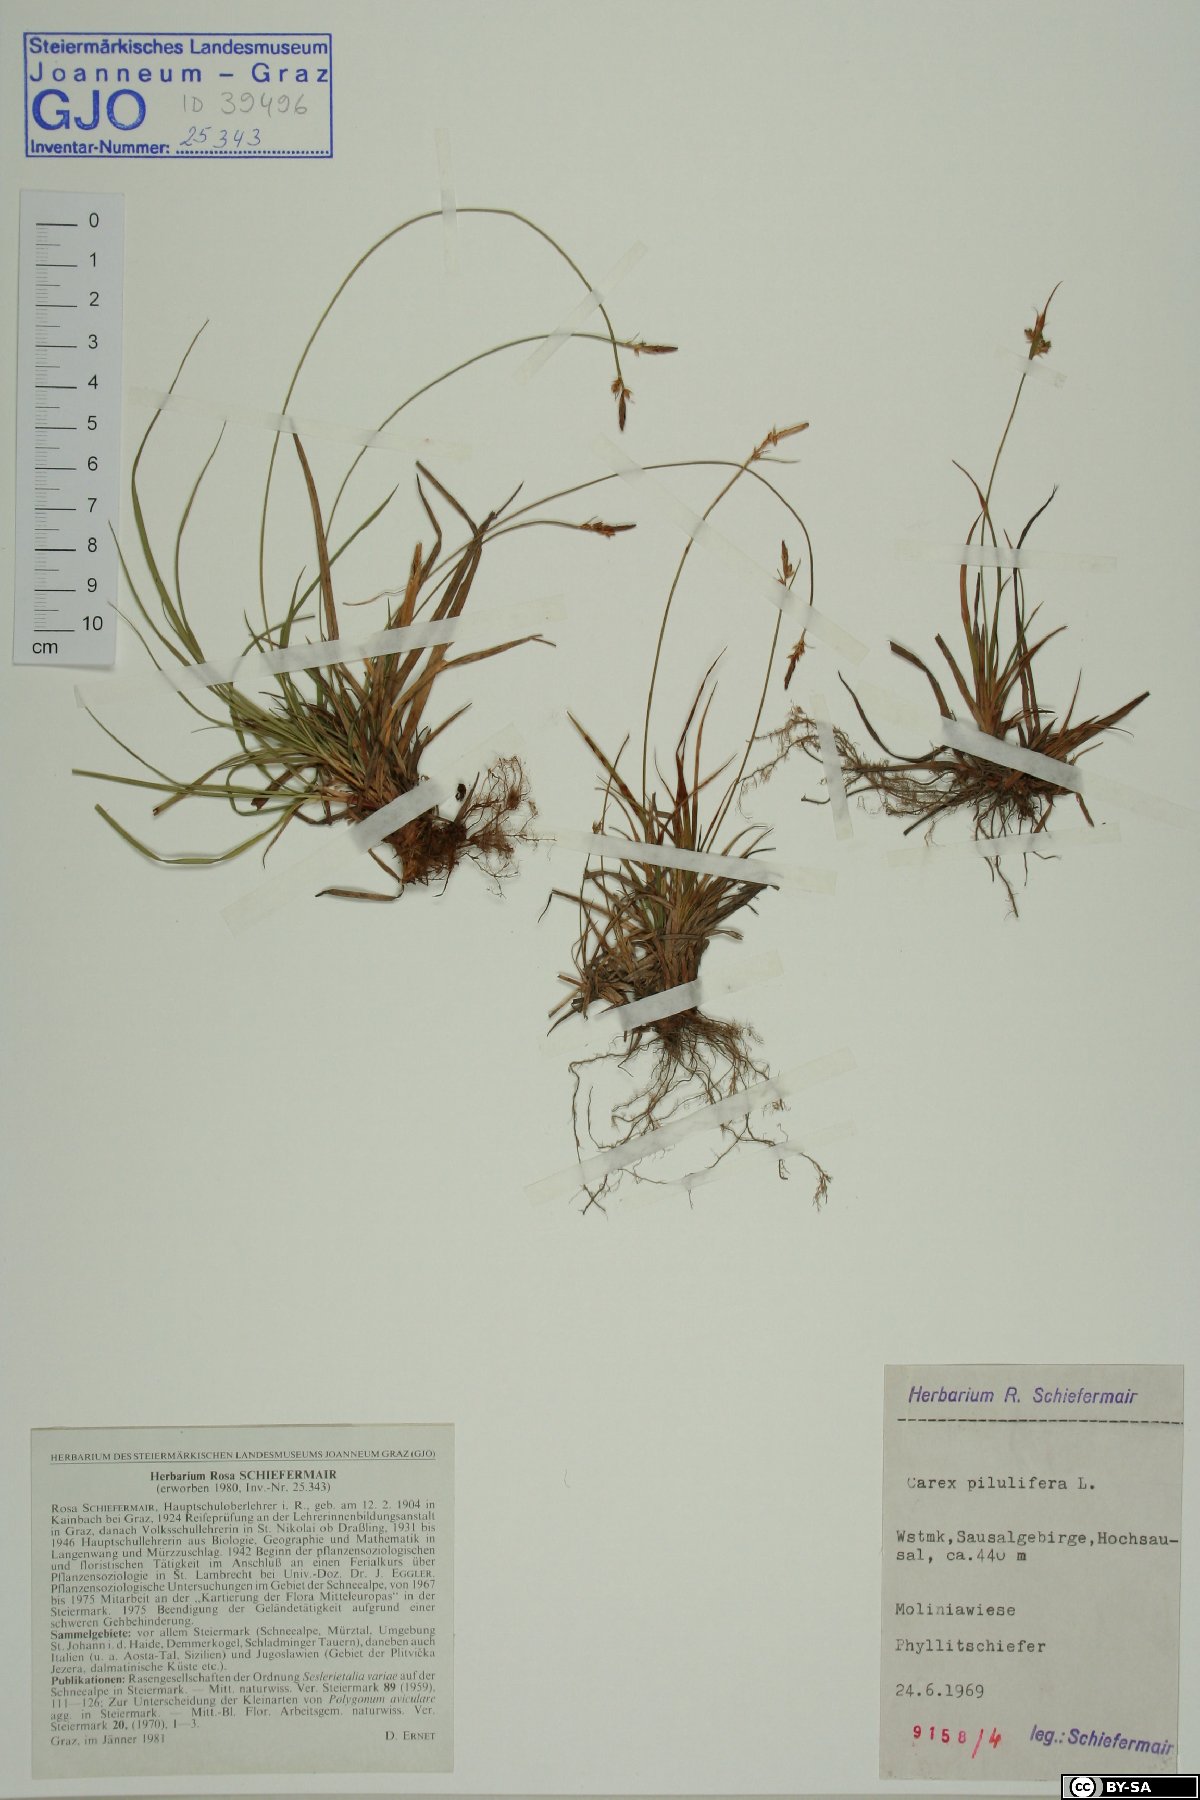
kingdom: Plantae
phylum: Tracheophyta
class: Liliopsida
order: Poales
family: Cyperaceae
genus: Carex
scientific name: Carex pilulifera
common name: Pill sedge
